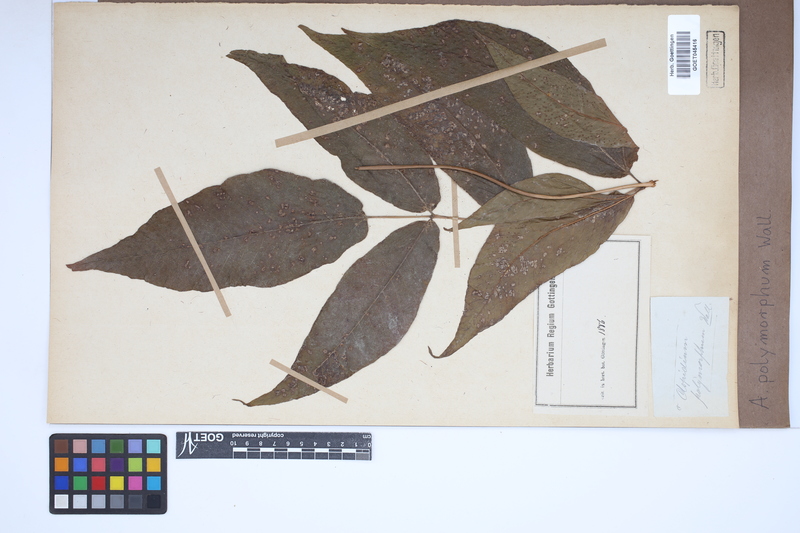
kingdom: Plantae
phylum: Tracheophyta
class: Polypodiopsida
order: Polypodiales
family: Tectariaceae
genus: Tectaria
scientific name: Tectaria polymorpha
